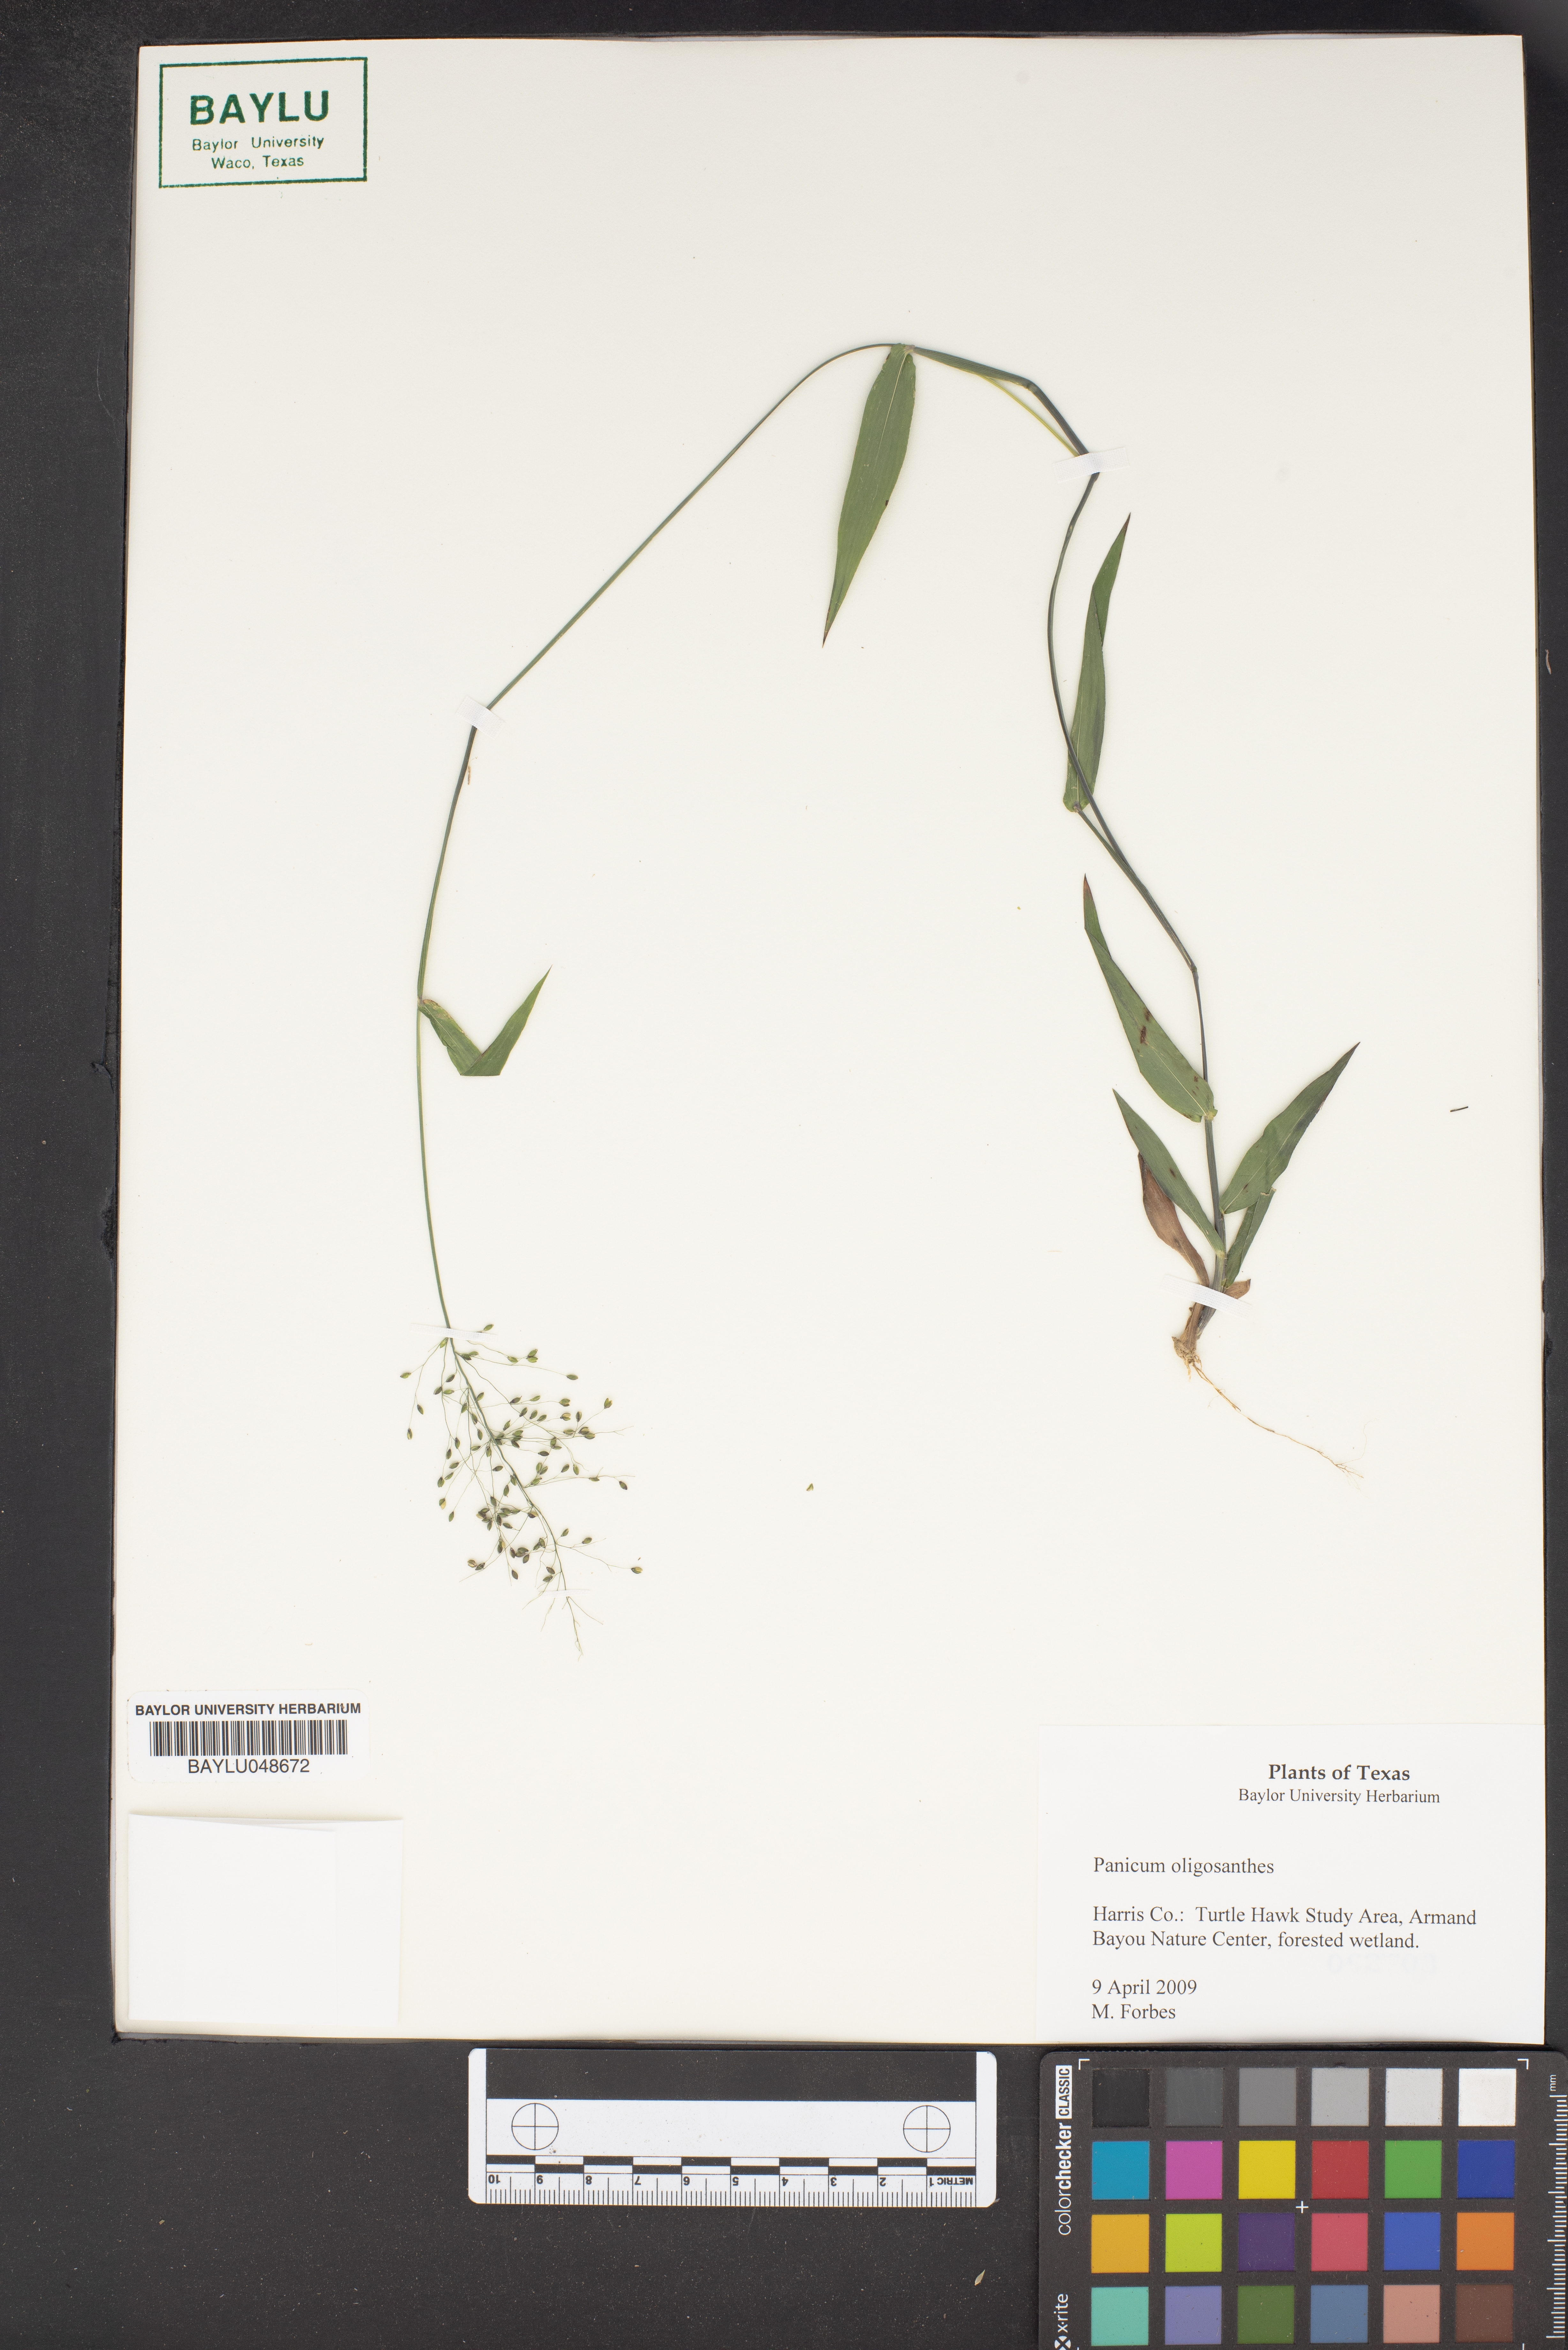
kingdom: Plantae
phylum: Tracheophyta
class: Liliopsida
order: Poales
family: Poaceae
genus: Dichanthelium
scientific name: Dichanthelium oligosanthes
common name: Few-anther obscuregrass
